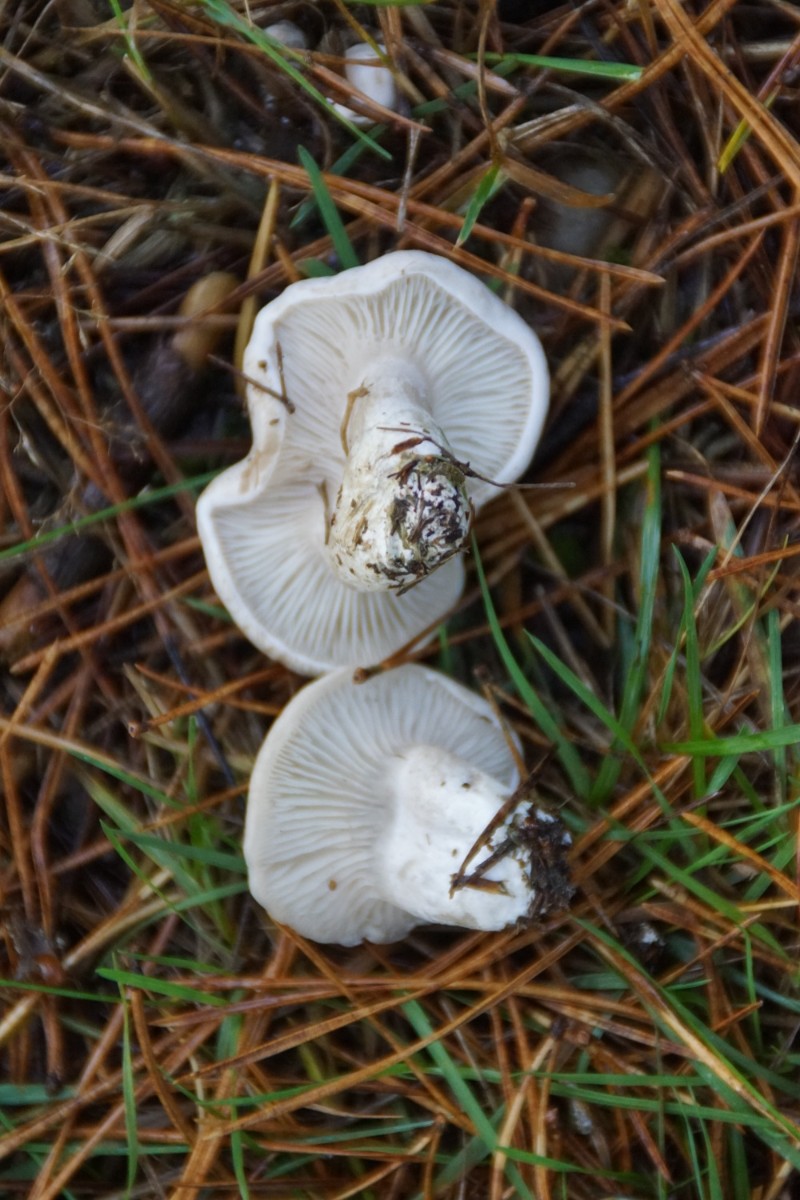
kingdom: Fungi
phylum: Basidiomycota
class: Agaricomycetes
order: Agaricales
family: Entolomataceae
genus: Clitopilus
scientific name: Clitopilus prunulus
